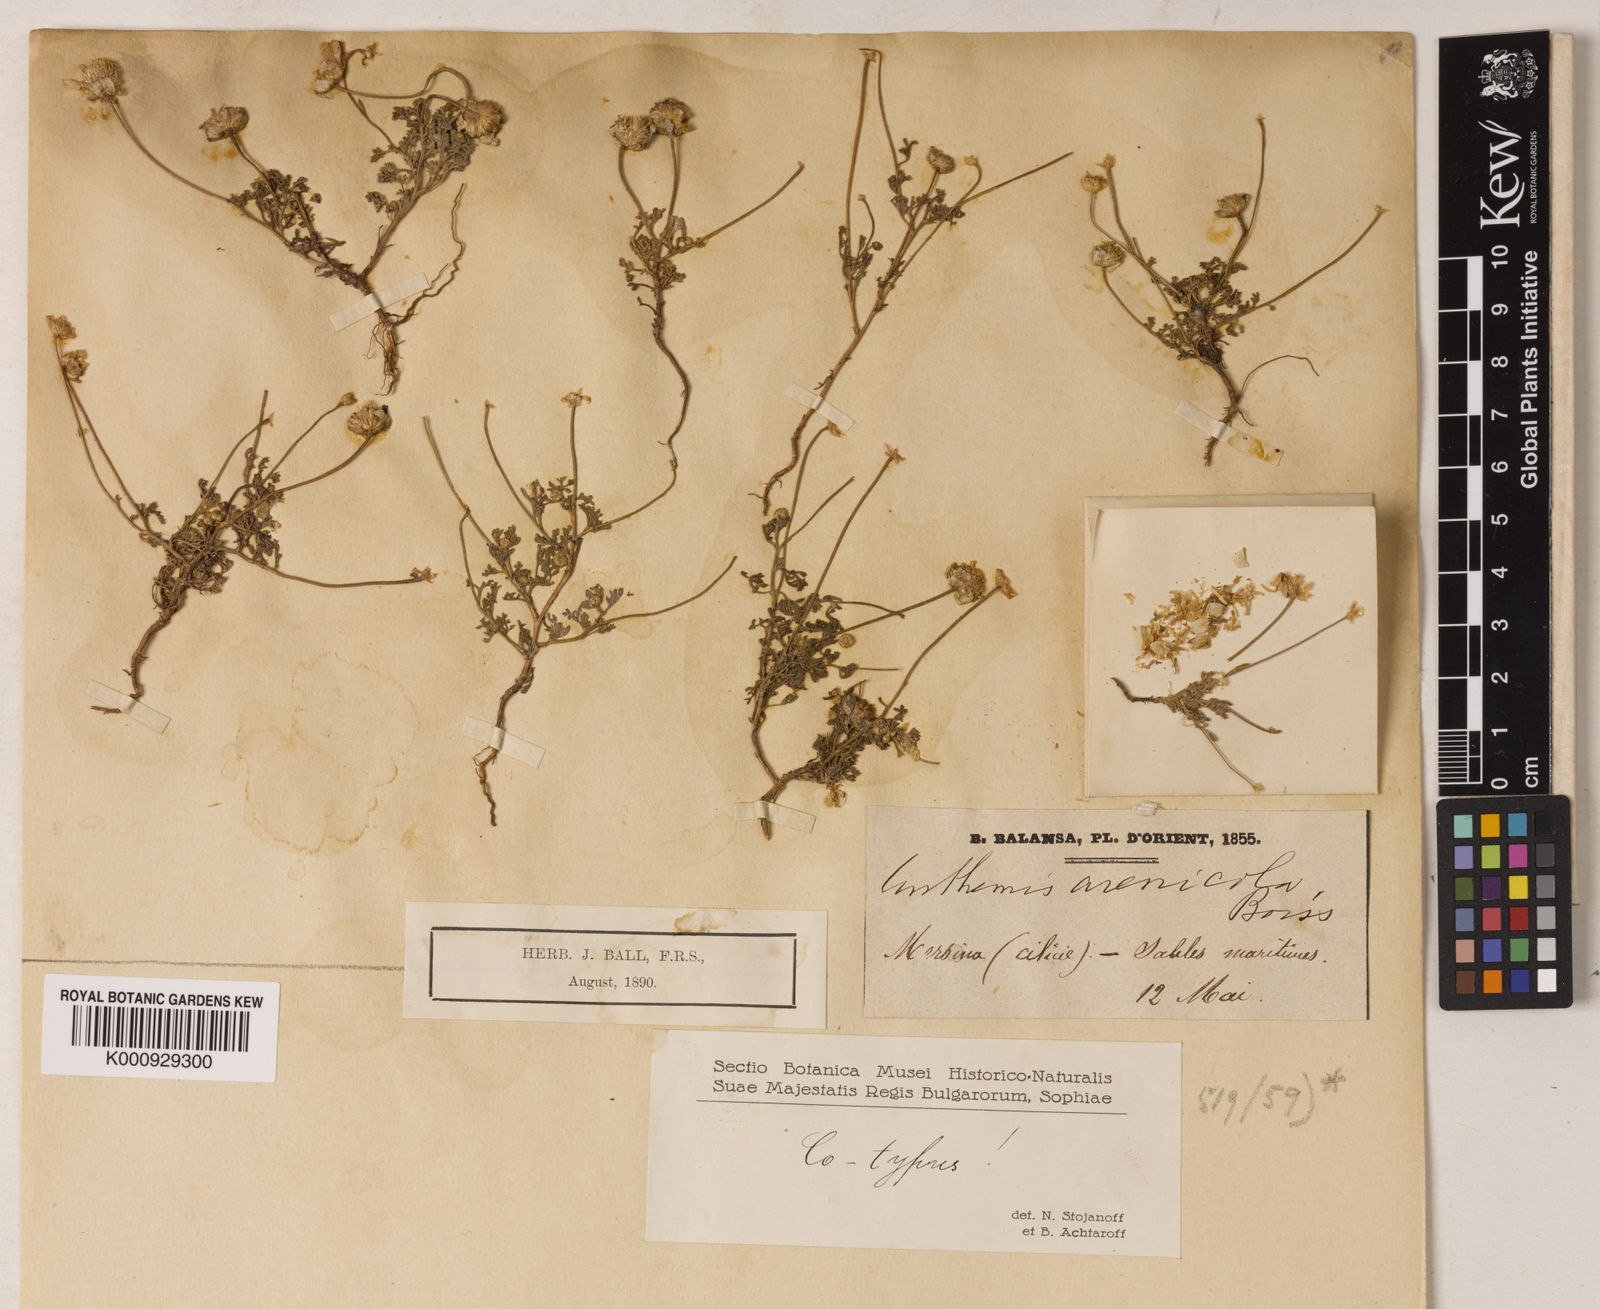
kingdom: Plantae
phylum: Tracheophyta
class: Magnoliopsida
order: Asterales
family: Asteraceae
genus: Anthemis
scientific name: Anthemis arenicola
